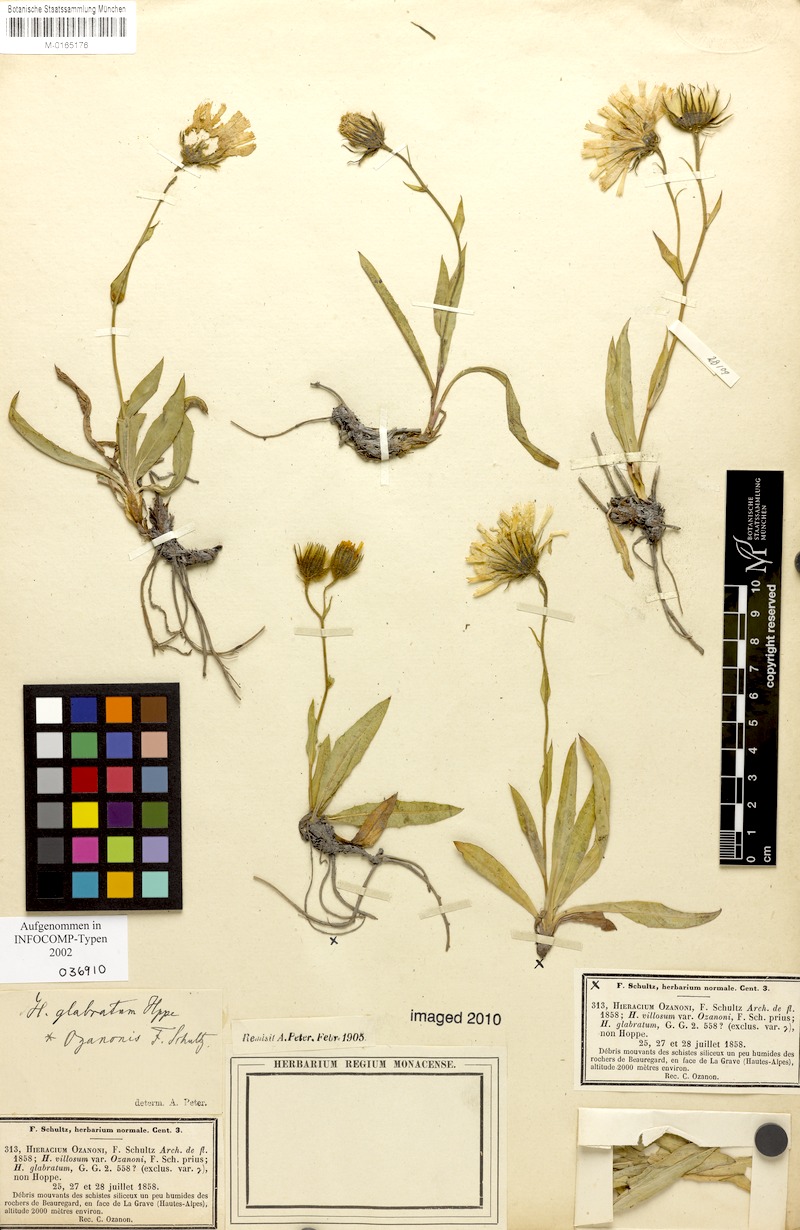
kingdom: Plantae
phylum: Tracheophyta
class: Magnoliopsida
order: Asterales
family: Asteraceae
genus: Hieracium
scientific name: Hieracium glabratum
